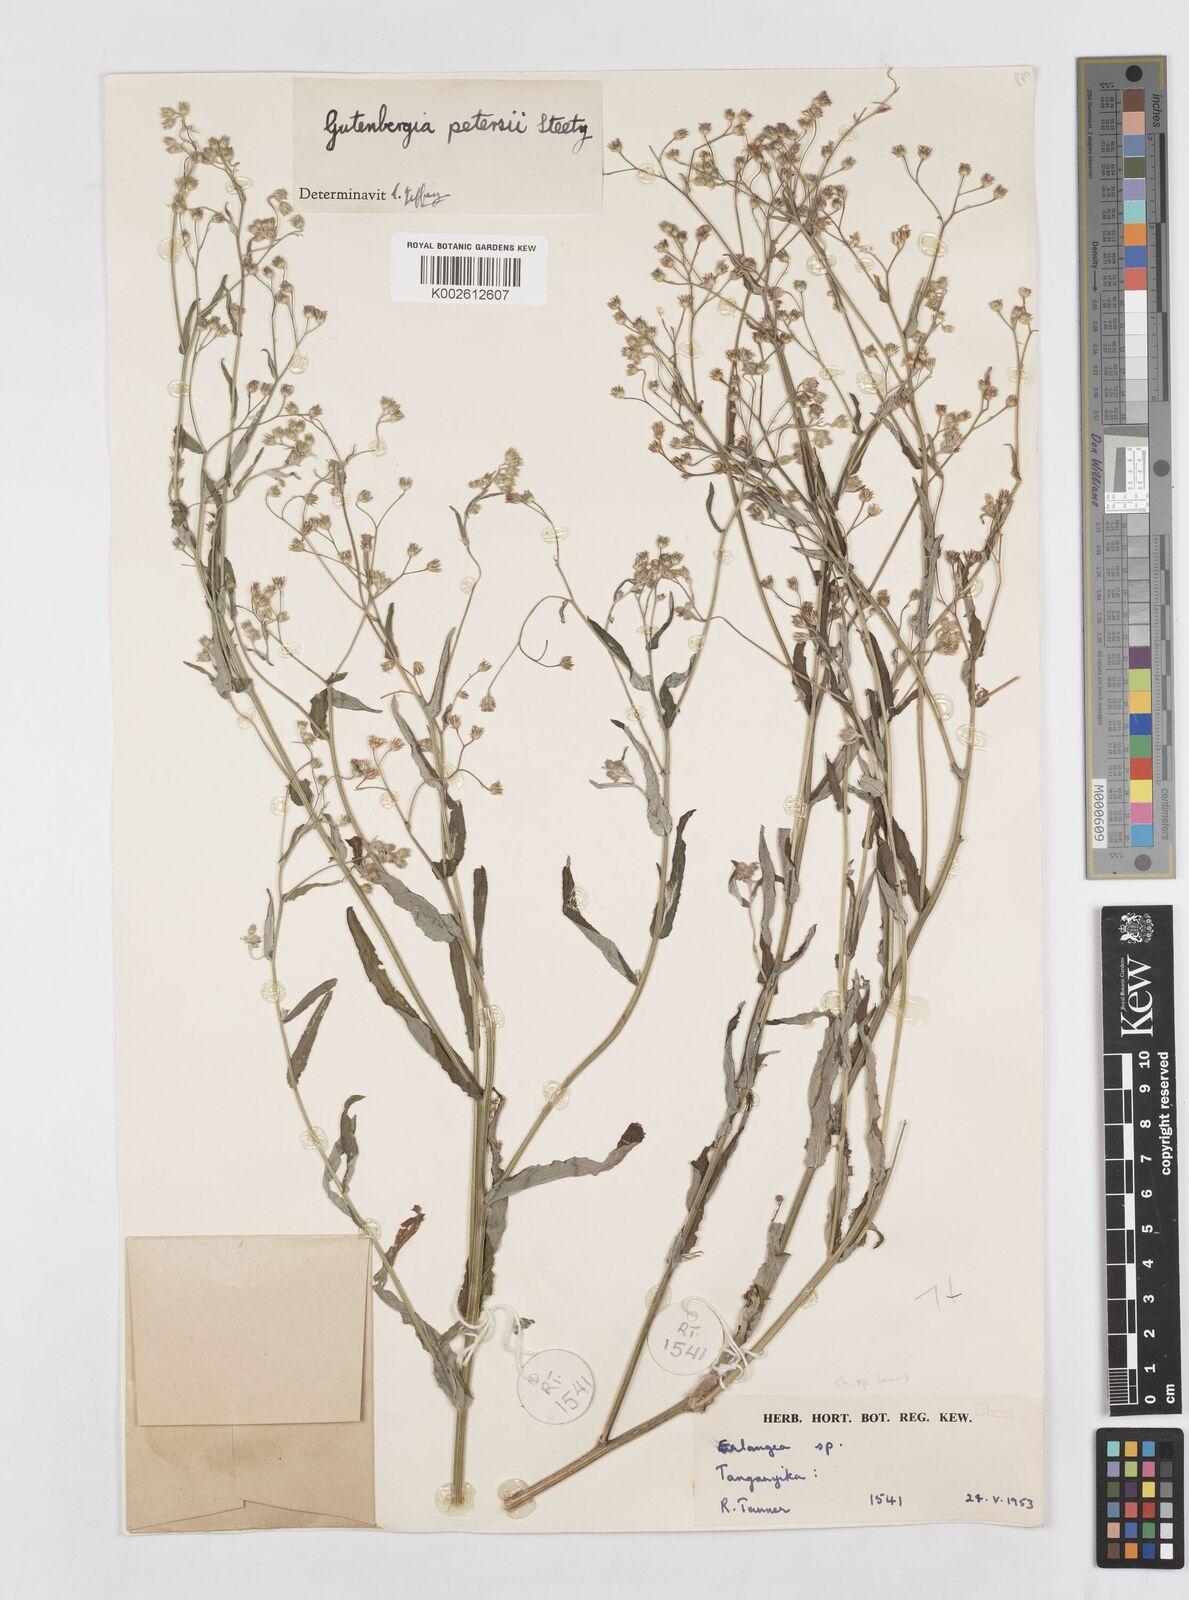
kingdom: Plantae
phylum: Tracheophyta
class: Magnoliopsida
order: Asterales
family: Asteraceae
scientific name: Asteraceae
